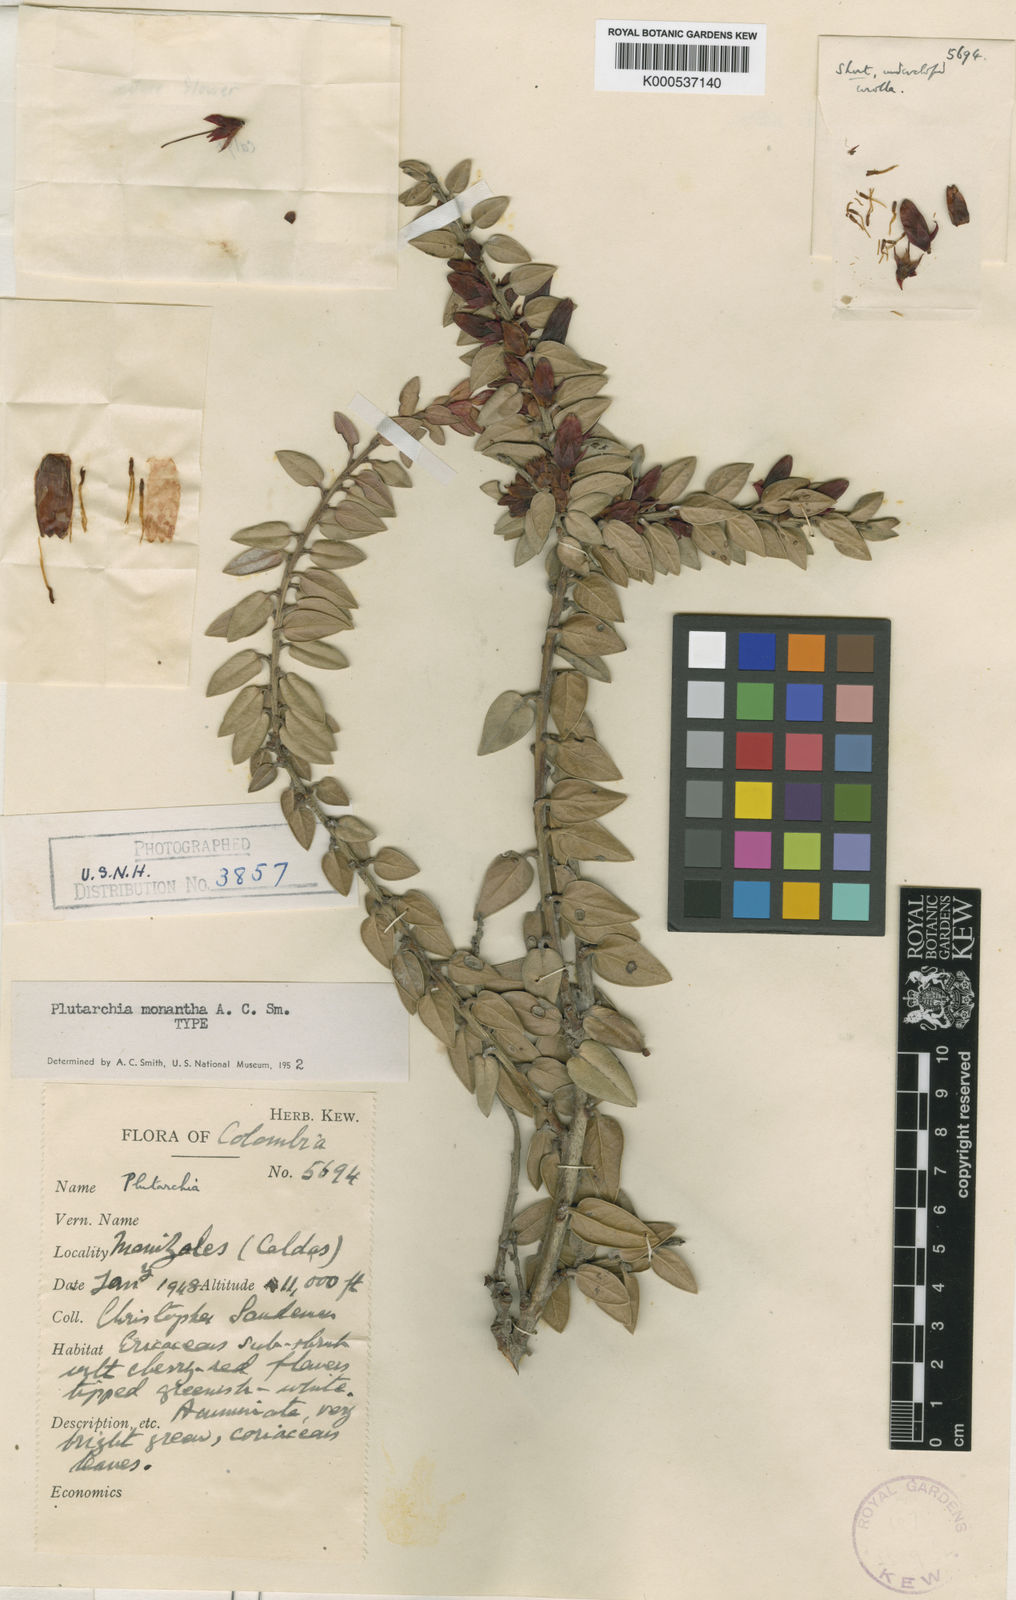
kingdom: Plantae
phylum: Tracheophyta
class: Magnoliopsida
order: Ericales
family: Ericaceae
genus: Plutarchia
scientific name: Plutarchia monantha
